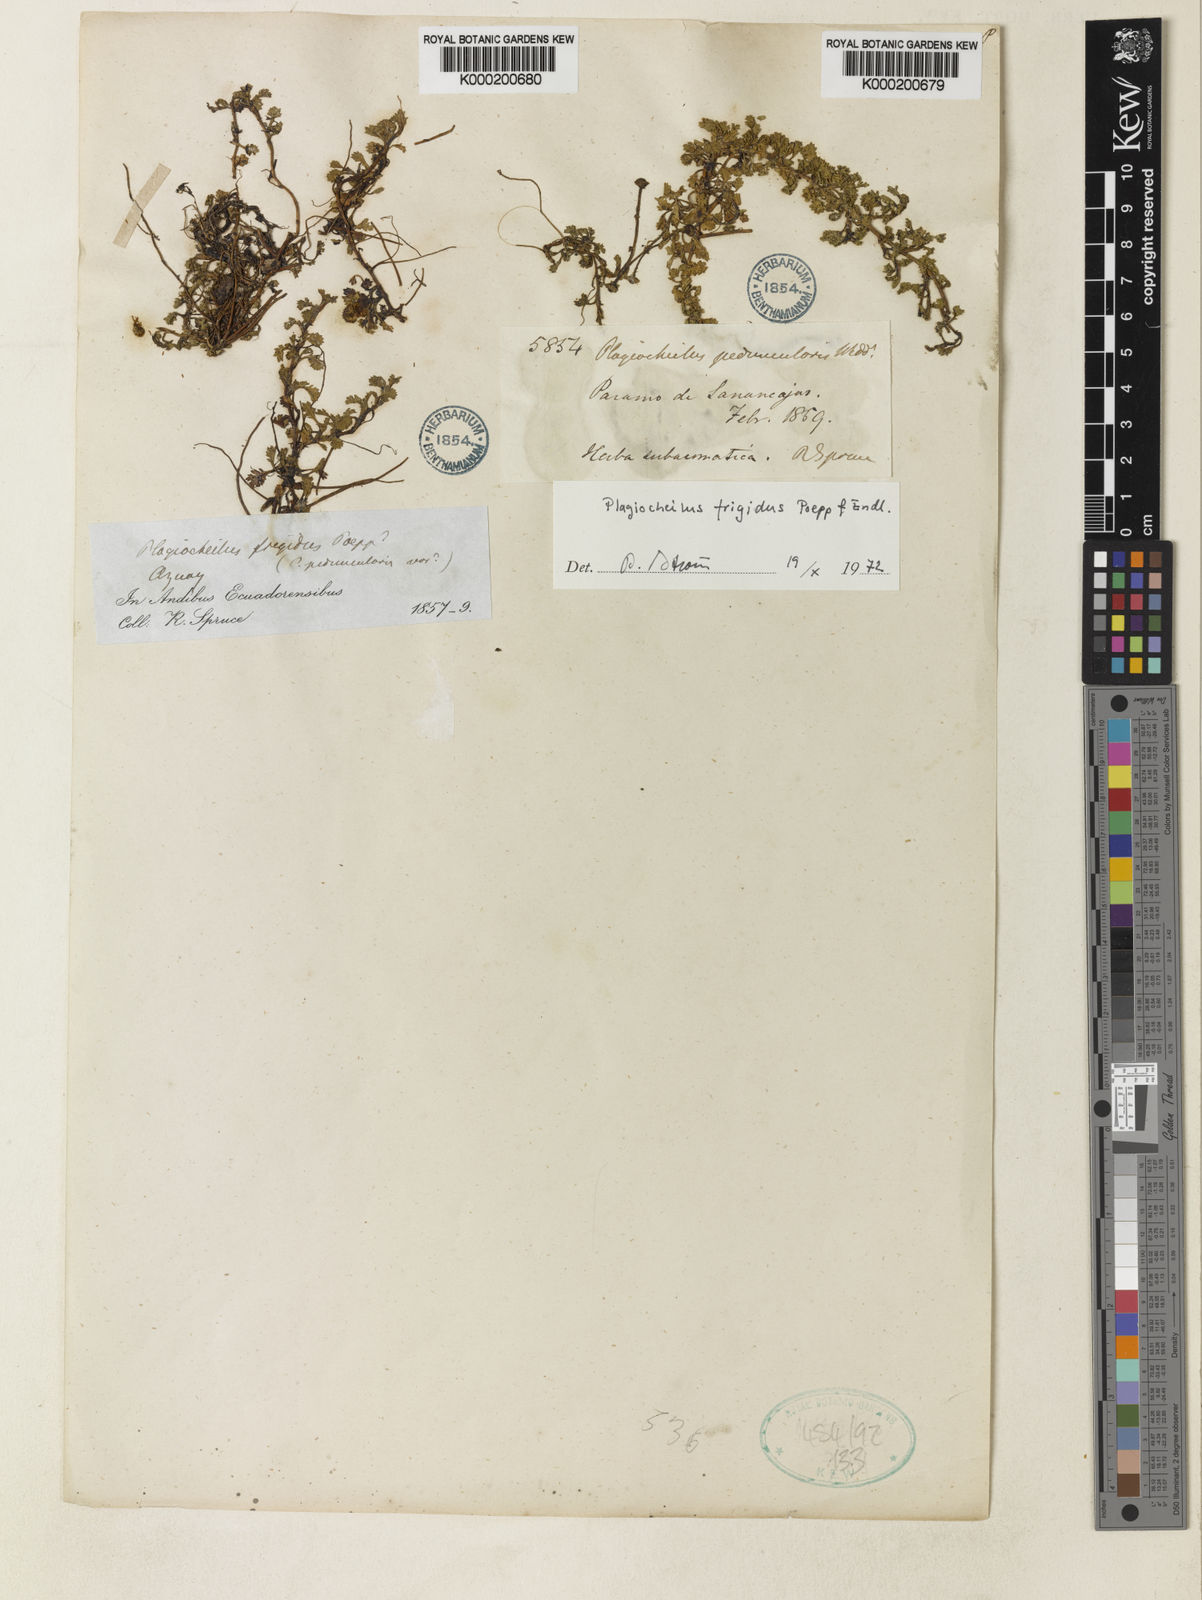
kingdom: Plantae
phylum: Tracheophyta
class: Magnoliopsida
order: Asterales
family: Asteraceae
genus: Plagiocheilus
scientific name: Plagiocheilus frigidus
